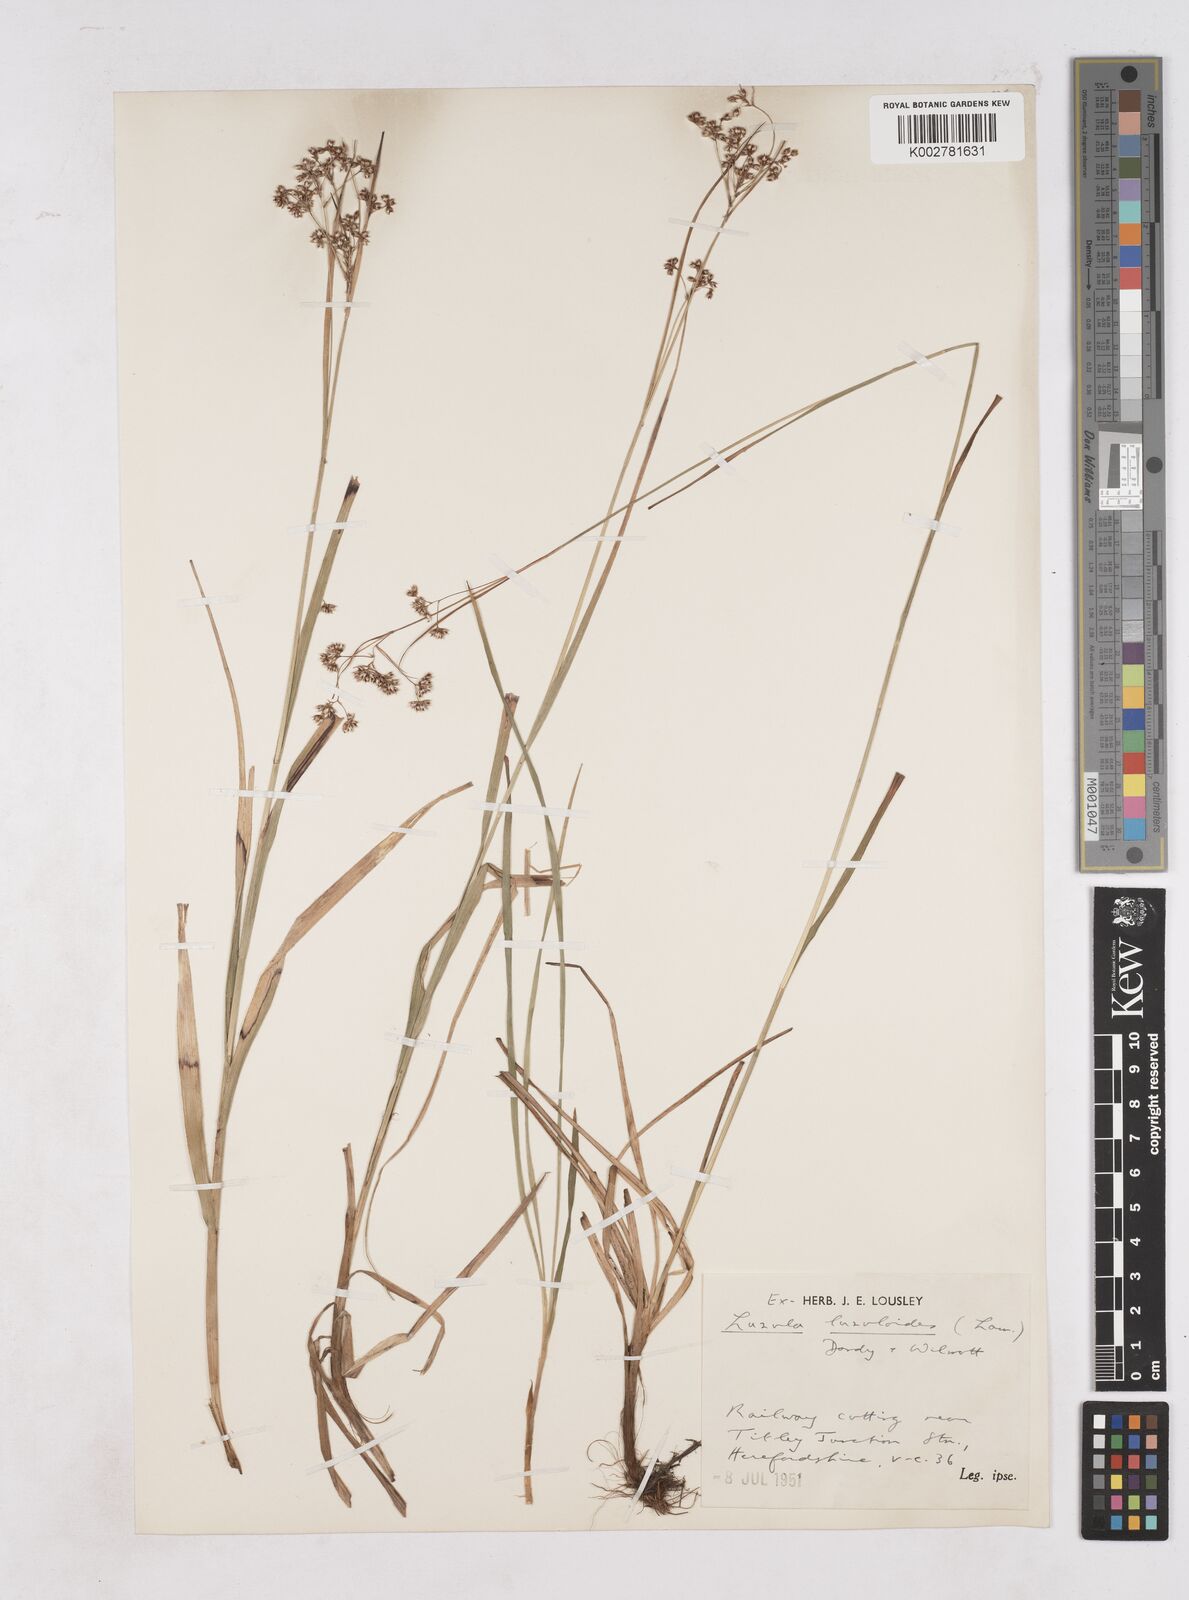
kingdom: Plantae
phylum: Tracheophyta
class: Liliopsida
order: Poales
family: Juncaceae
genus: Luzula
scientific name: Luzula luzuloides
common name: White wood-rush
